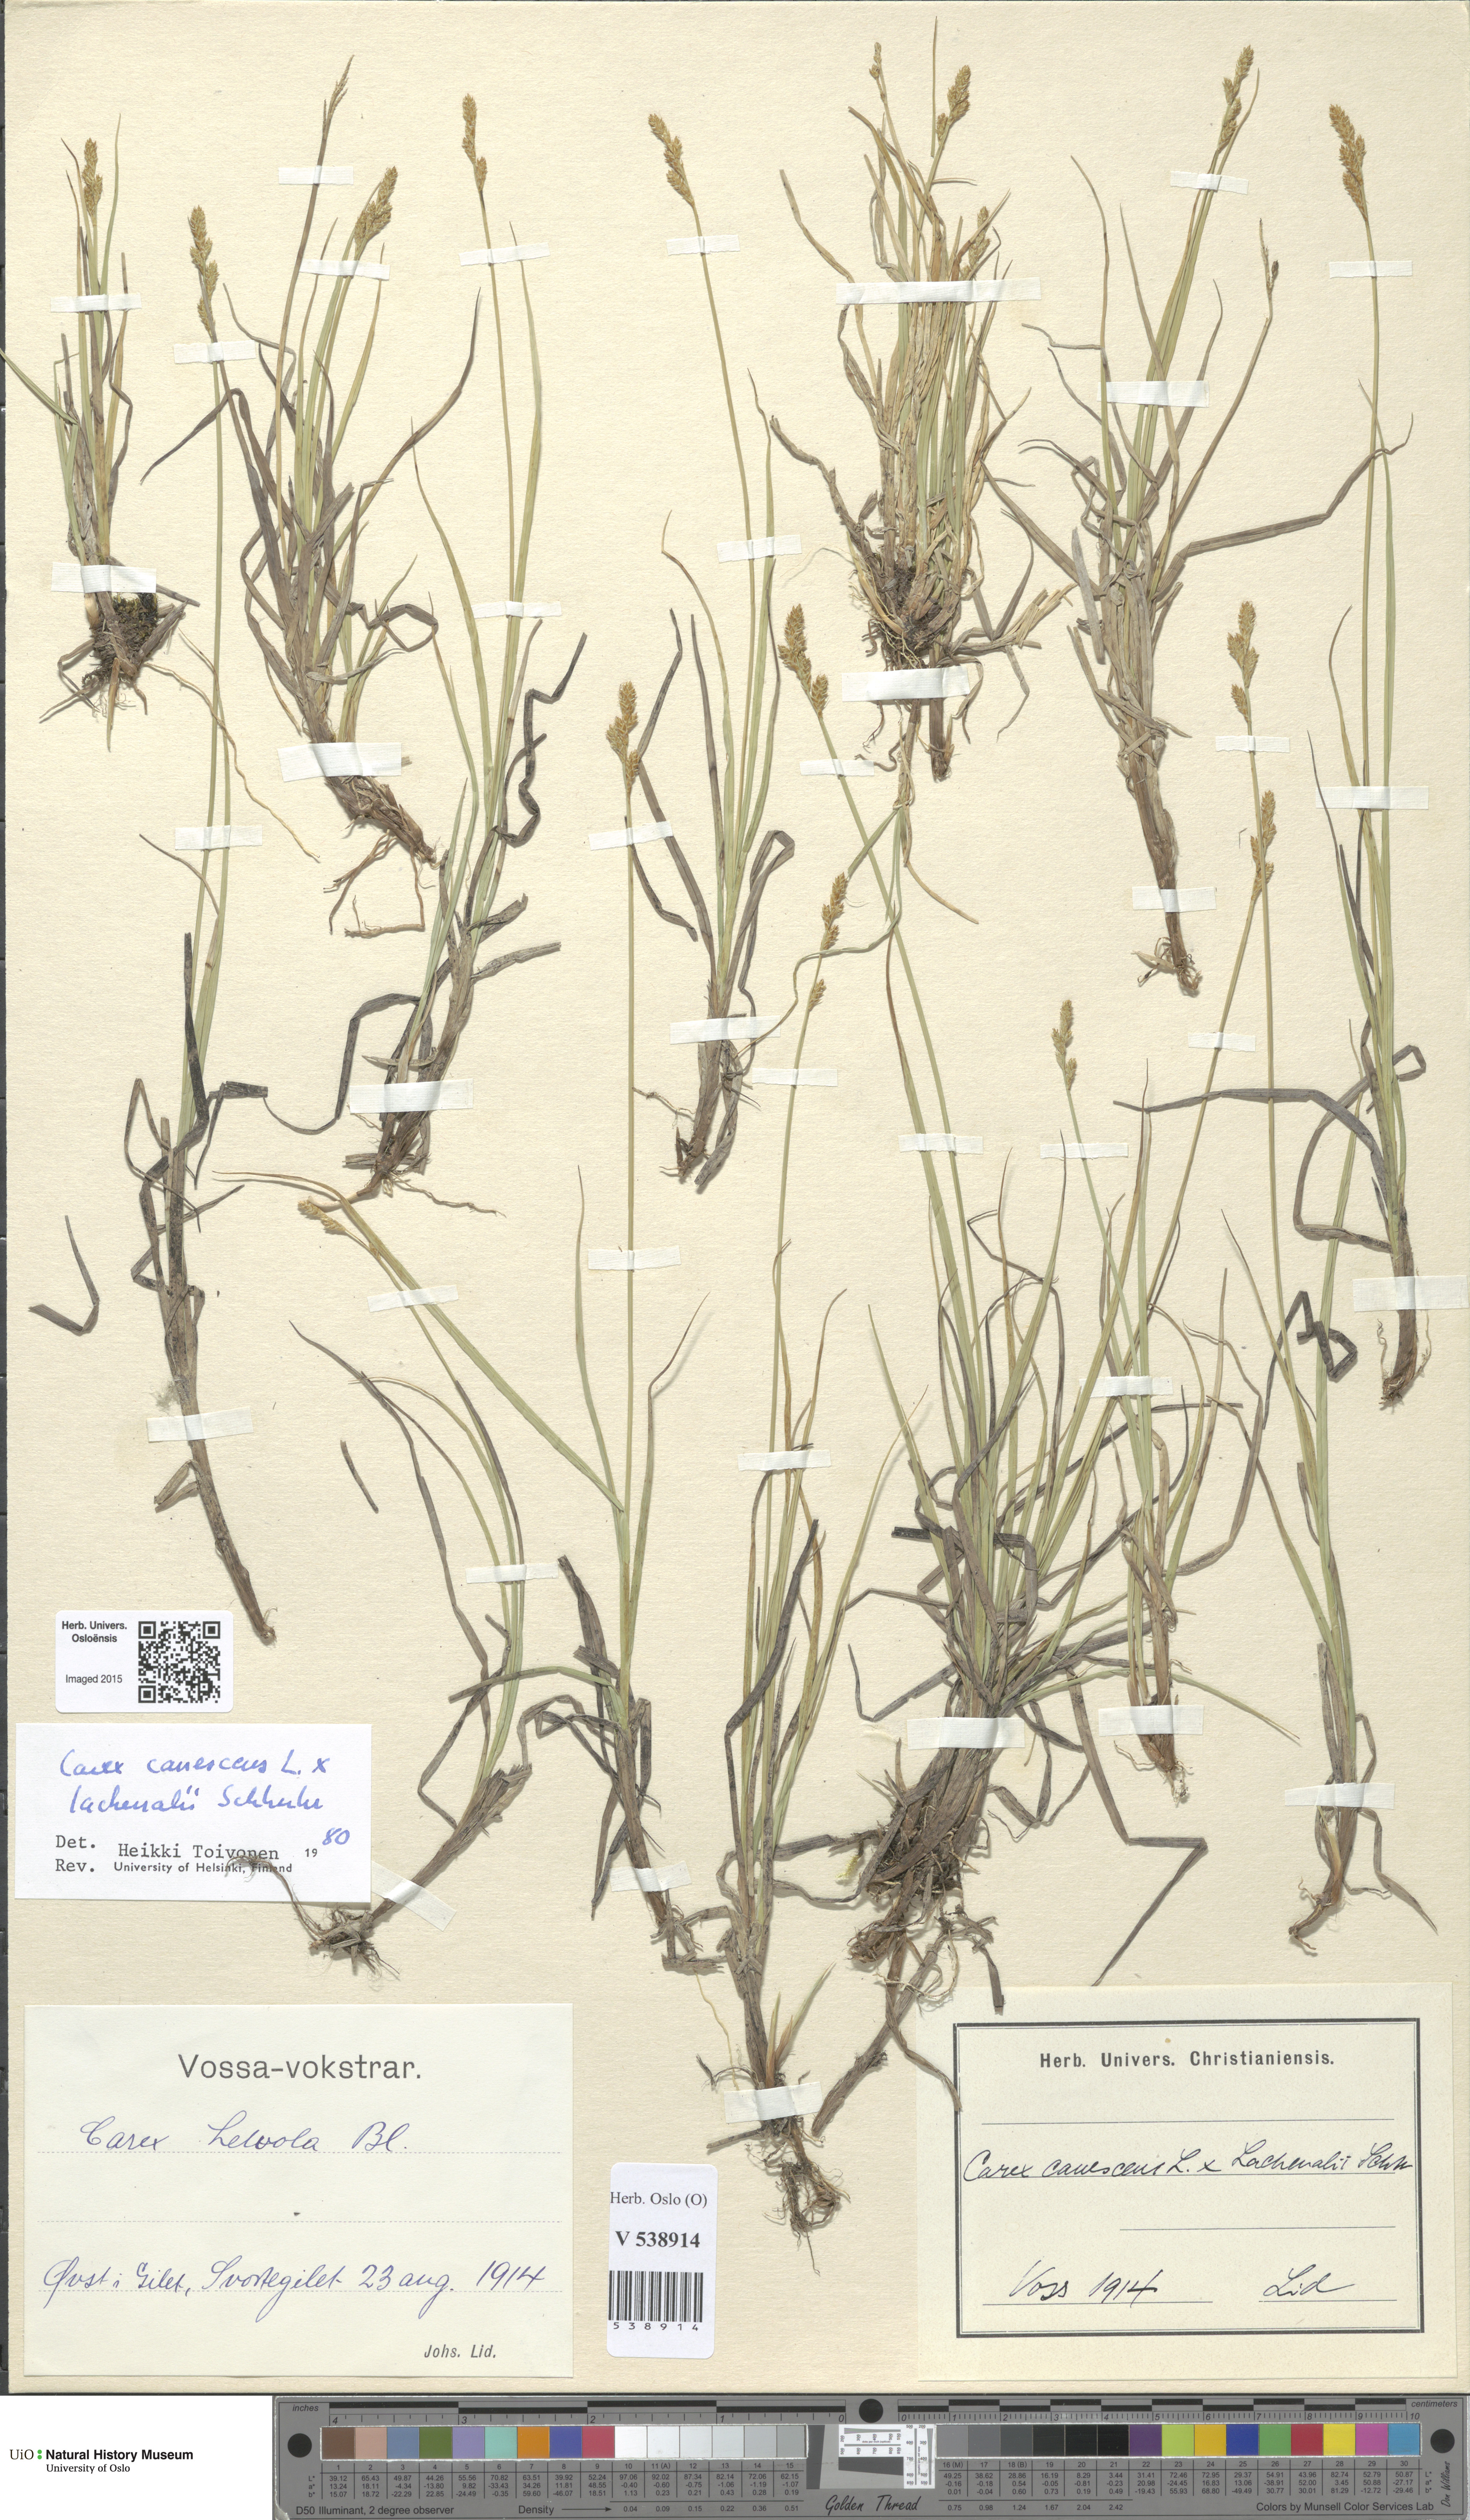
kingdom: Plantae
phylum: Tracheophyta
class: Liliopsida
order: Poales
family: Cyperaceae
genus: Carex
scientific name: Carex
